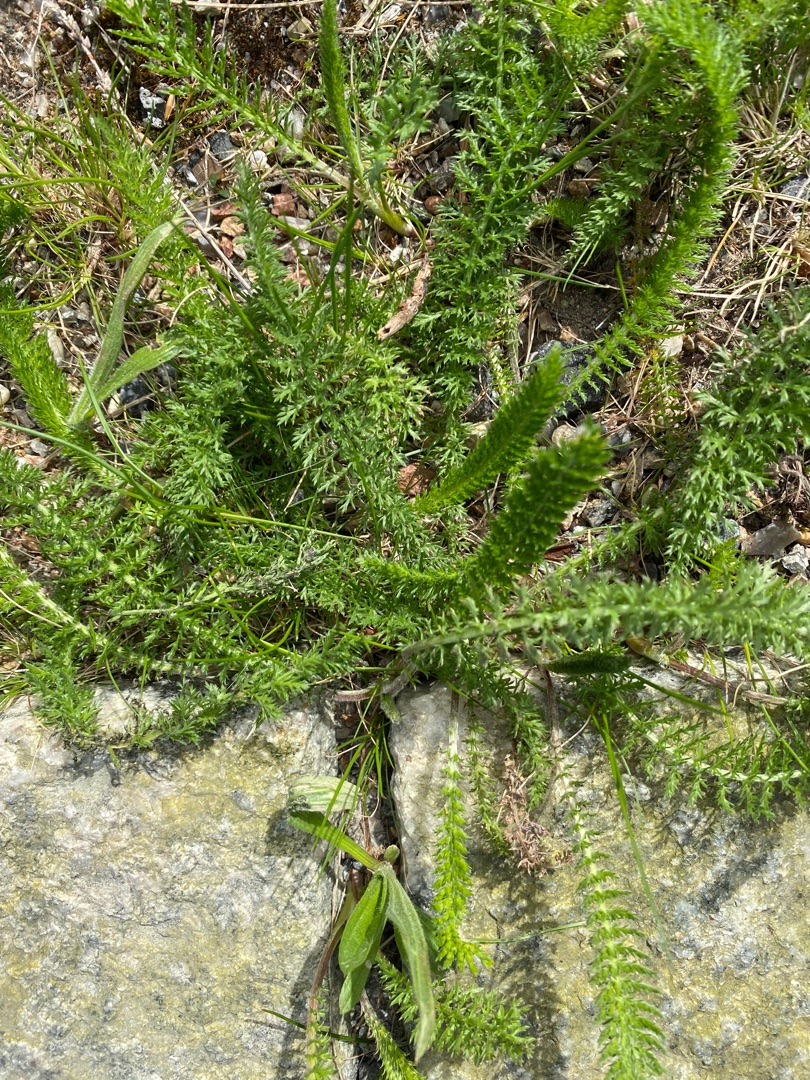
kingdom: Plantae
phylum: Tracheophyta
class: Magnoliopsida
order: Asterales
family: Asteraceae
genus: Achillea
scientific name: Achillea millefolium
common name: Almindelig røllike
